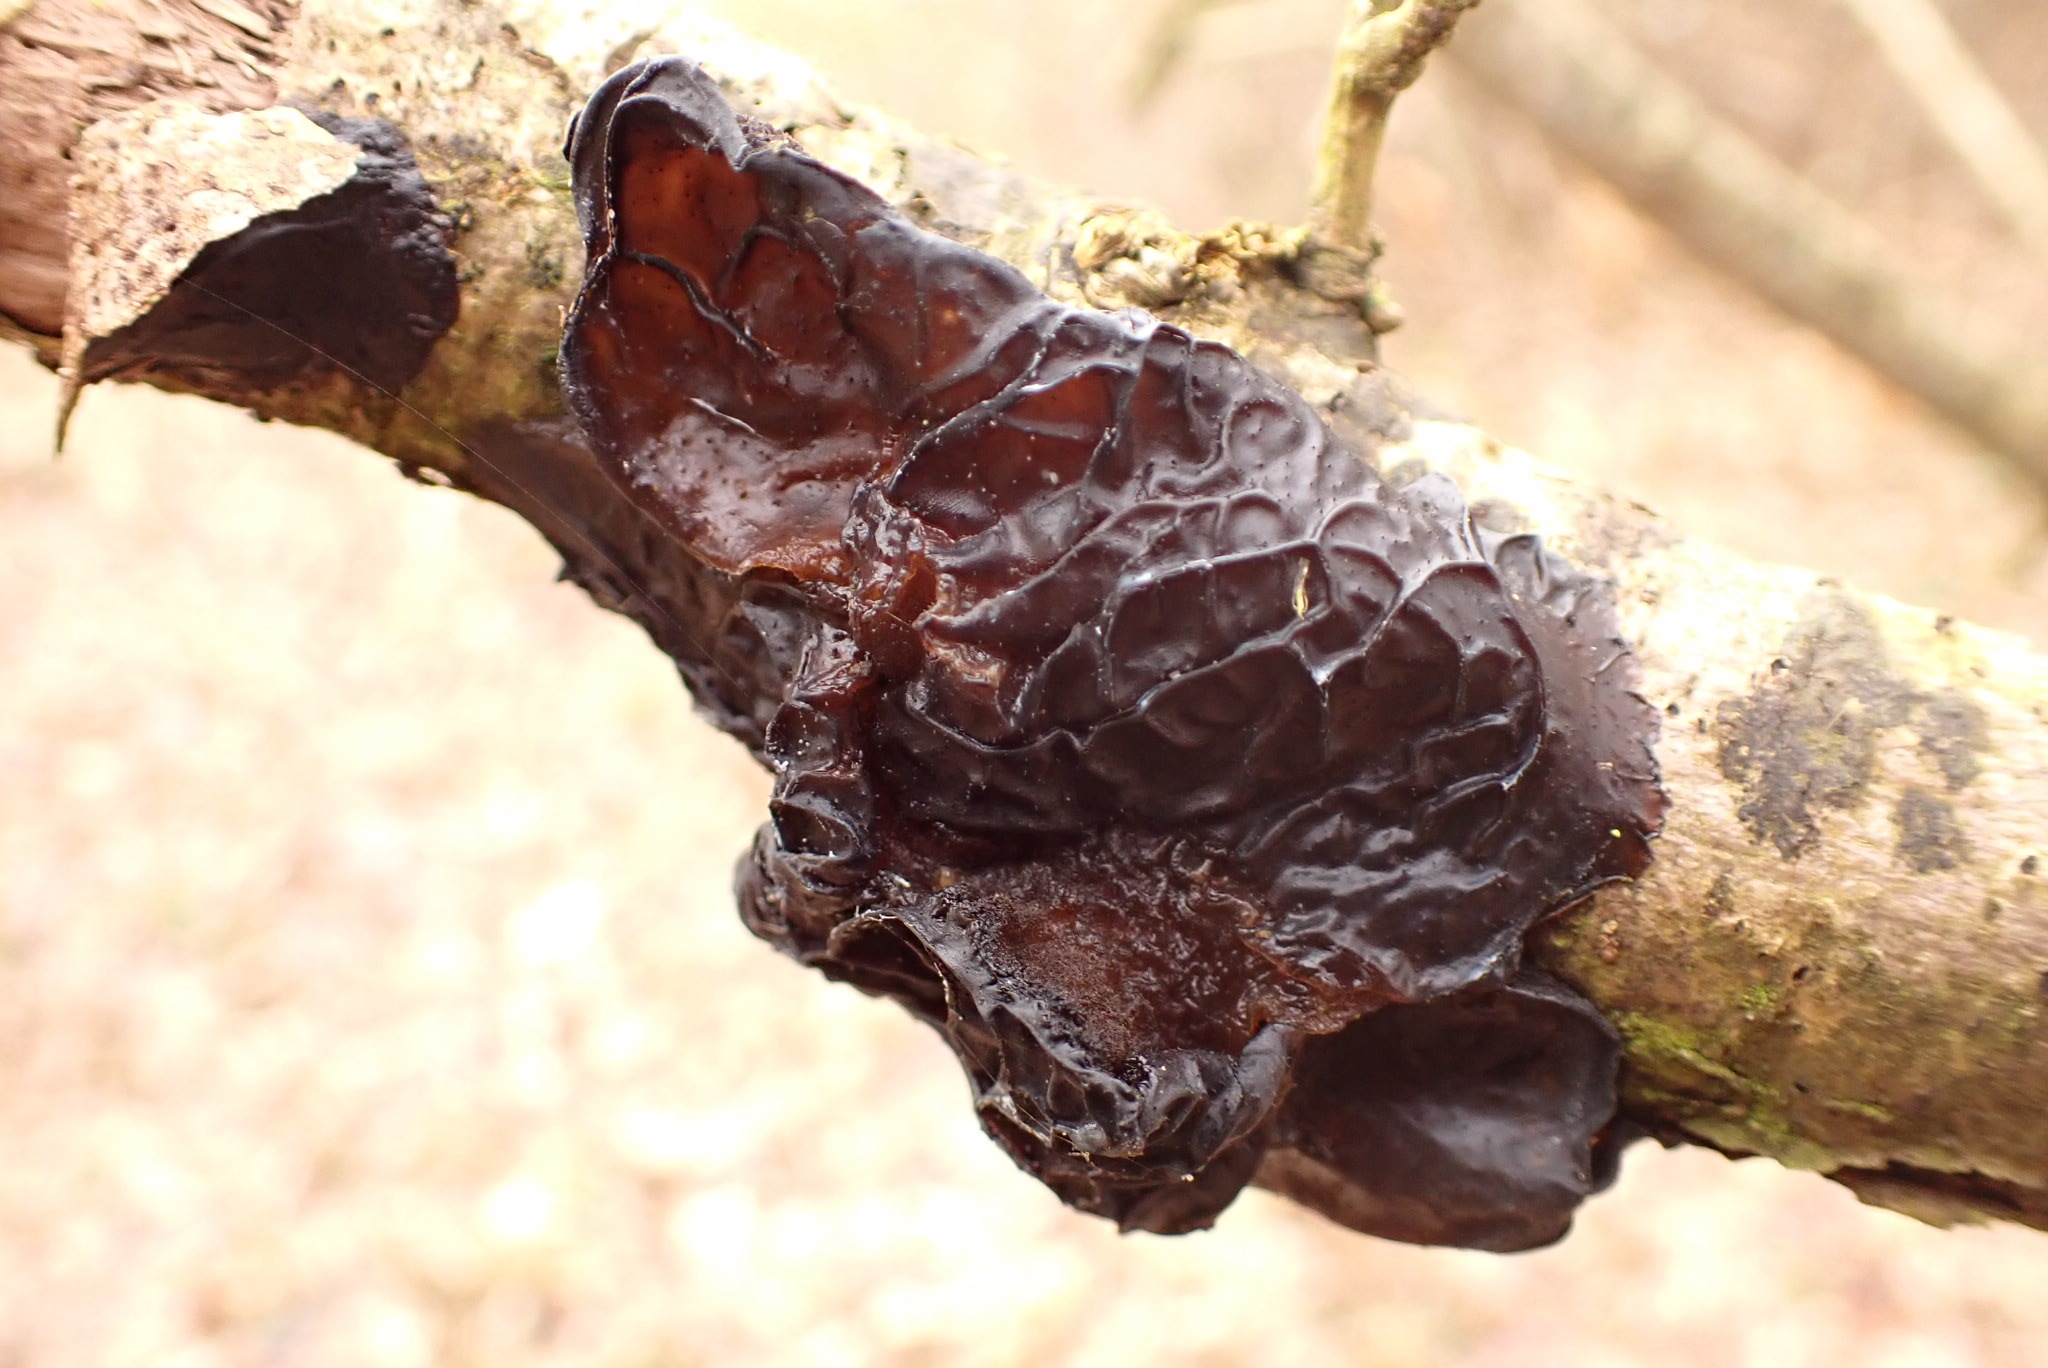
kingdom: Fungi
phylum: Basidiomycota
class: Agaricomycetes
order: Auriculariales
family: Auriculariaceae
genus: Exidia
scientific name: Exidia glandulosa
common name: ege-bævretop
